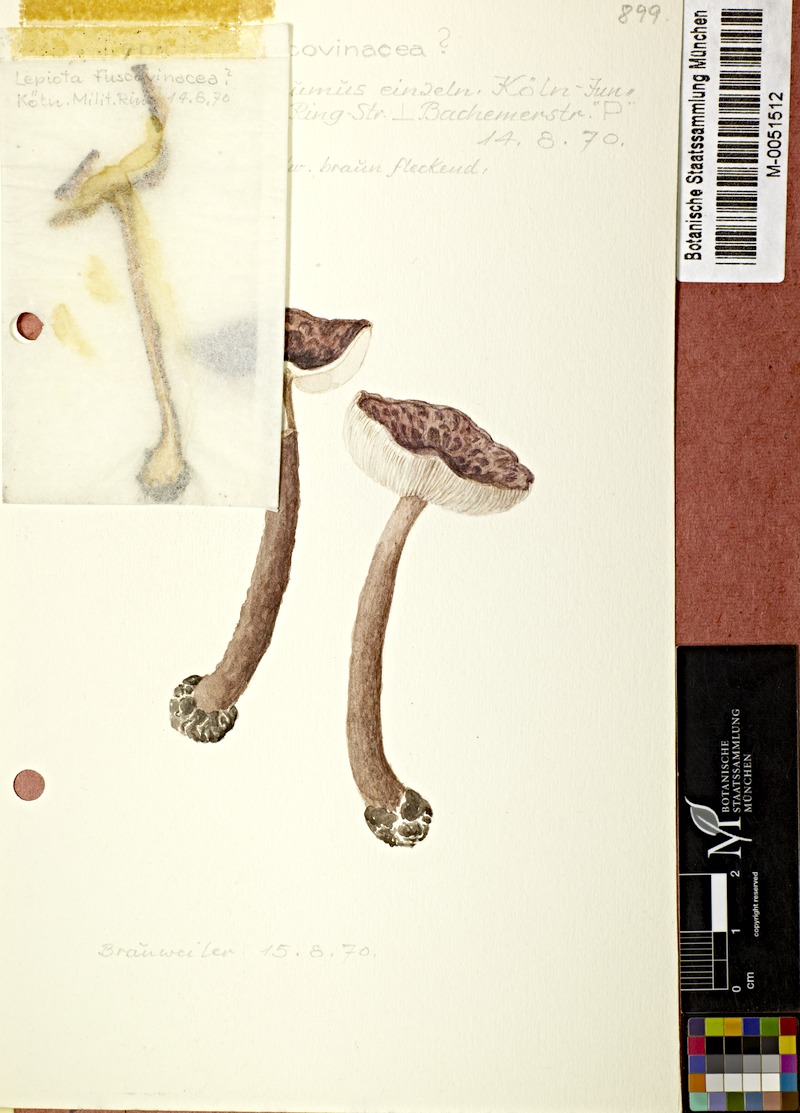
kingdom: Fungi
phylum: Basidiomycota
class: Agaricomycetes
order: Agaricales
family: Agaricaceae
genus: Lepiota
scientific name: Lepiota fuscovinacea
